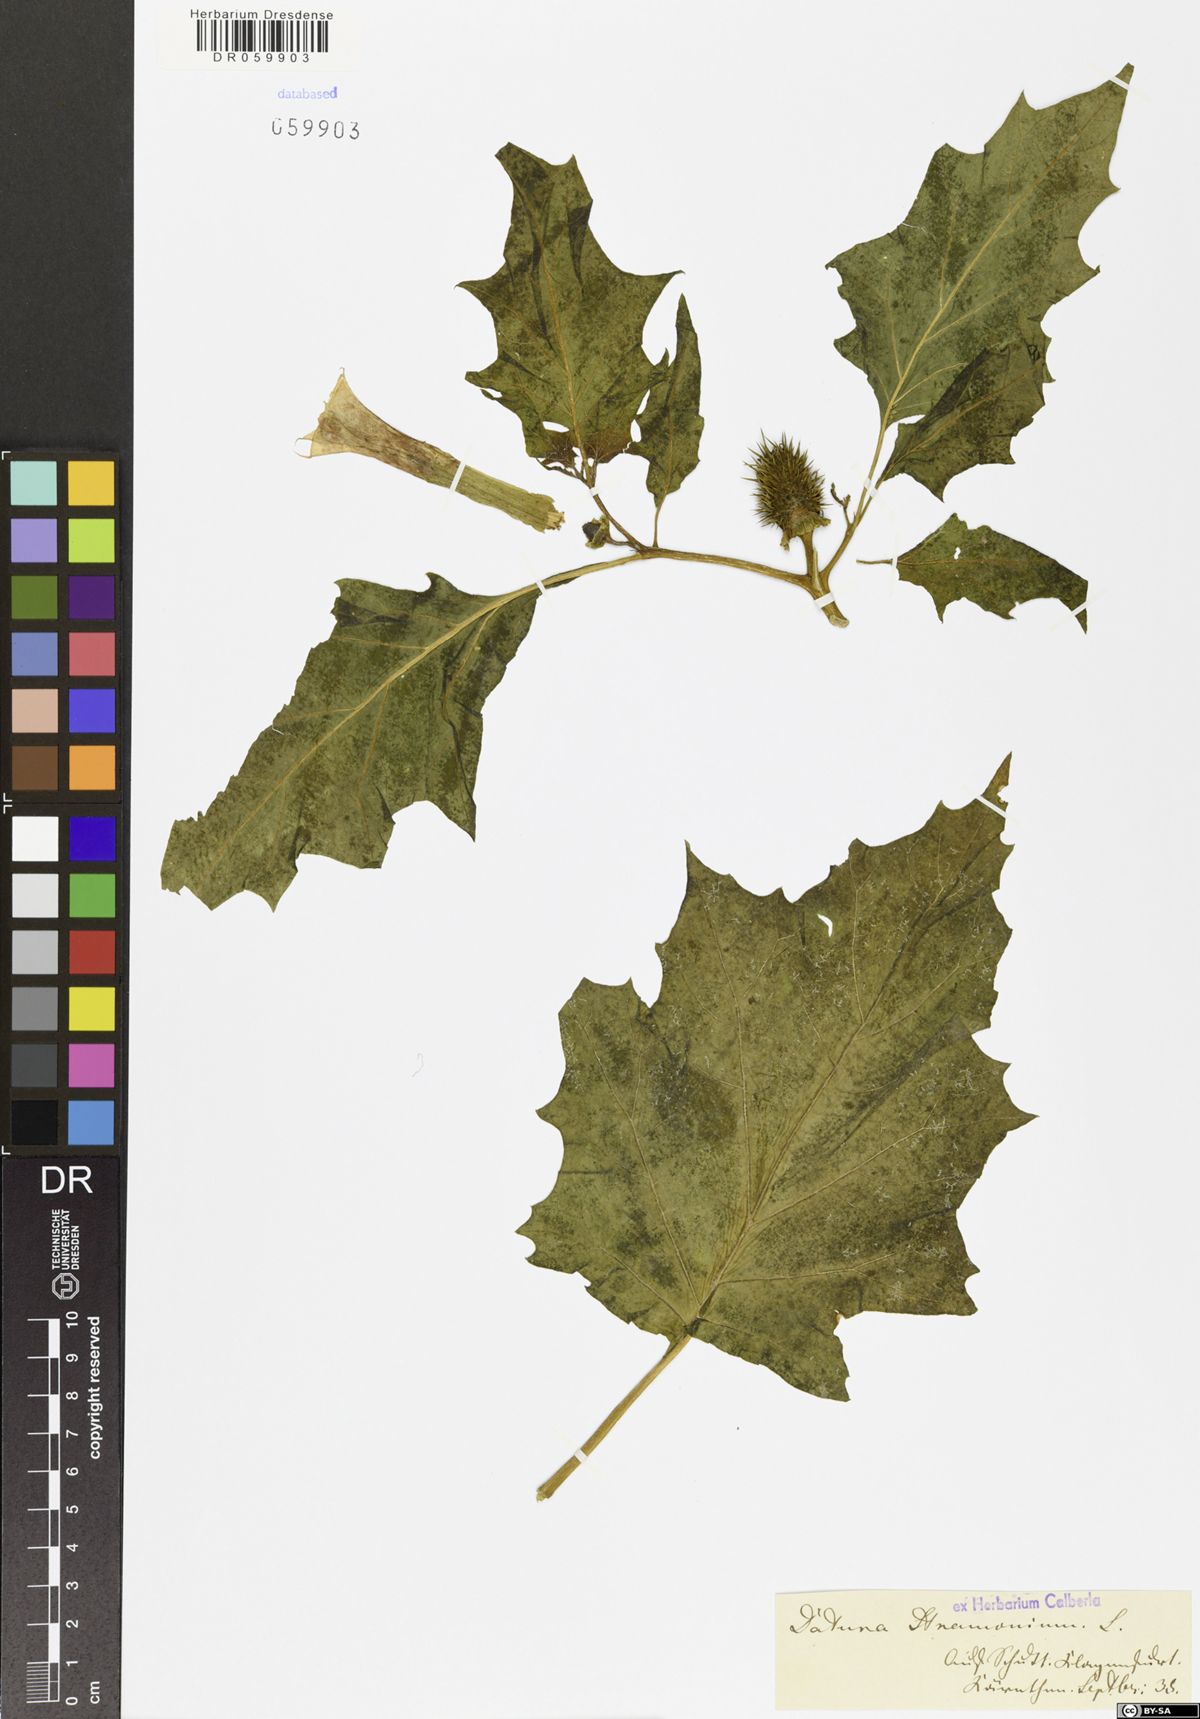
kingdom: Plantae
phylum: Tracheophyta
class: Magnoliopsida
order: Solanales
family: Solanaceae
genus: Datura
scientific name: Datura stramonium
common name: Thorn-apple
